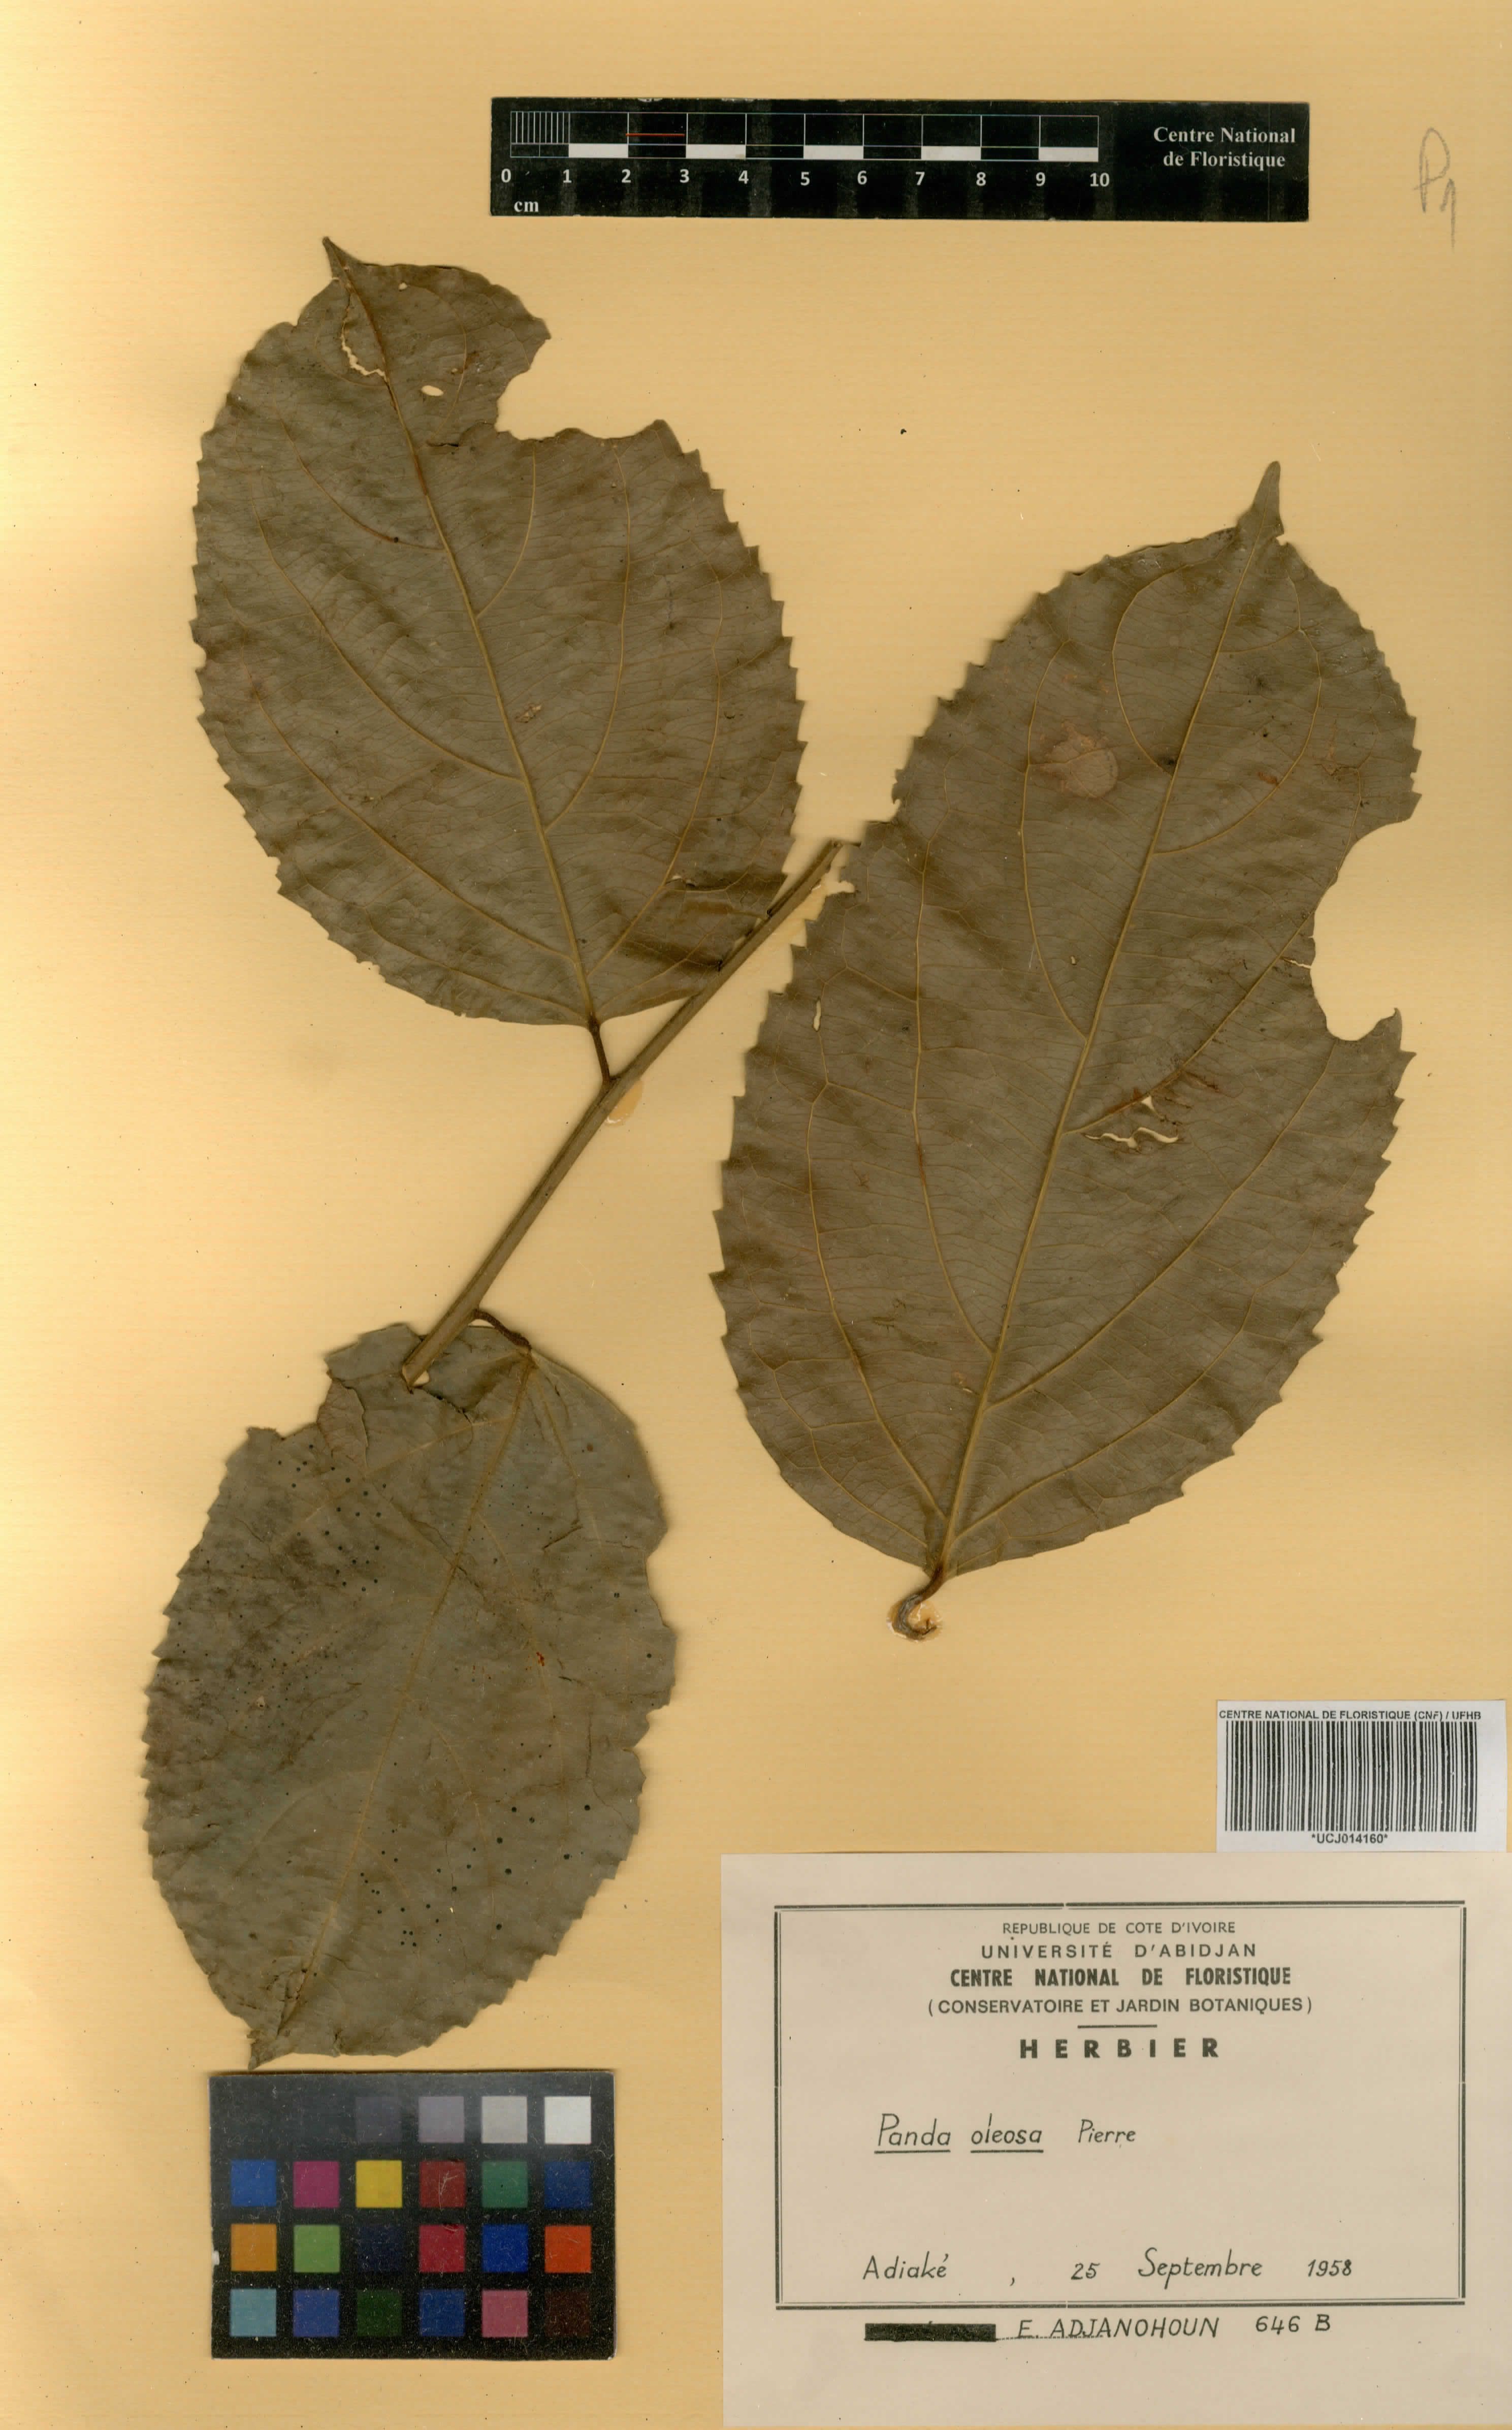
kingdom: Plantae
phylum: Tracheophyta
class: Magnoliopsida
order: Malpighiales
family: Pandaceae
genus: Panda
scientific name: Panda oleosa
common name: Panda
